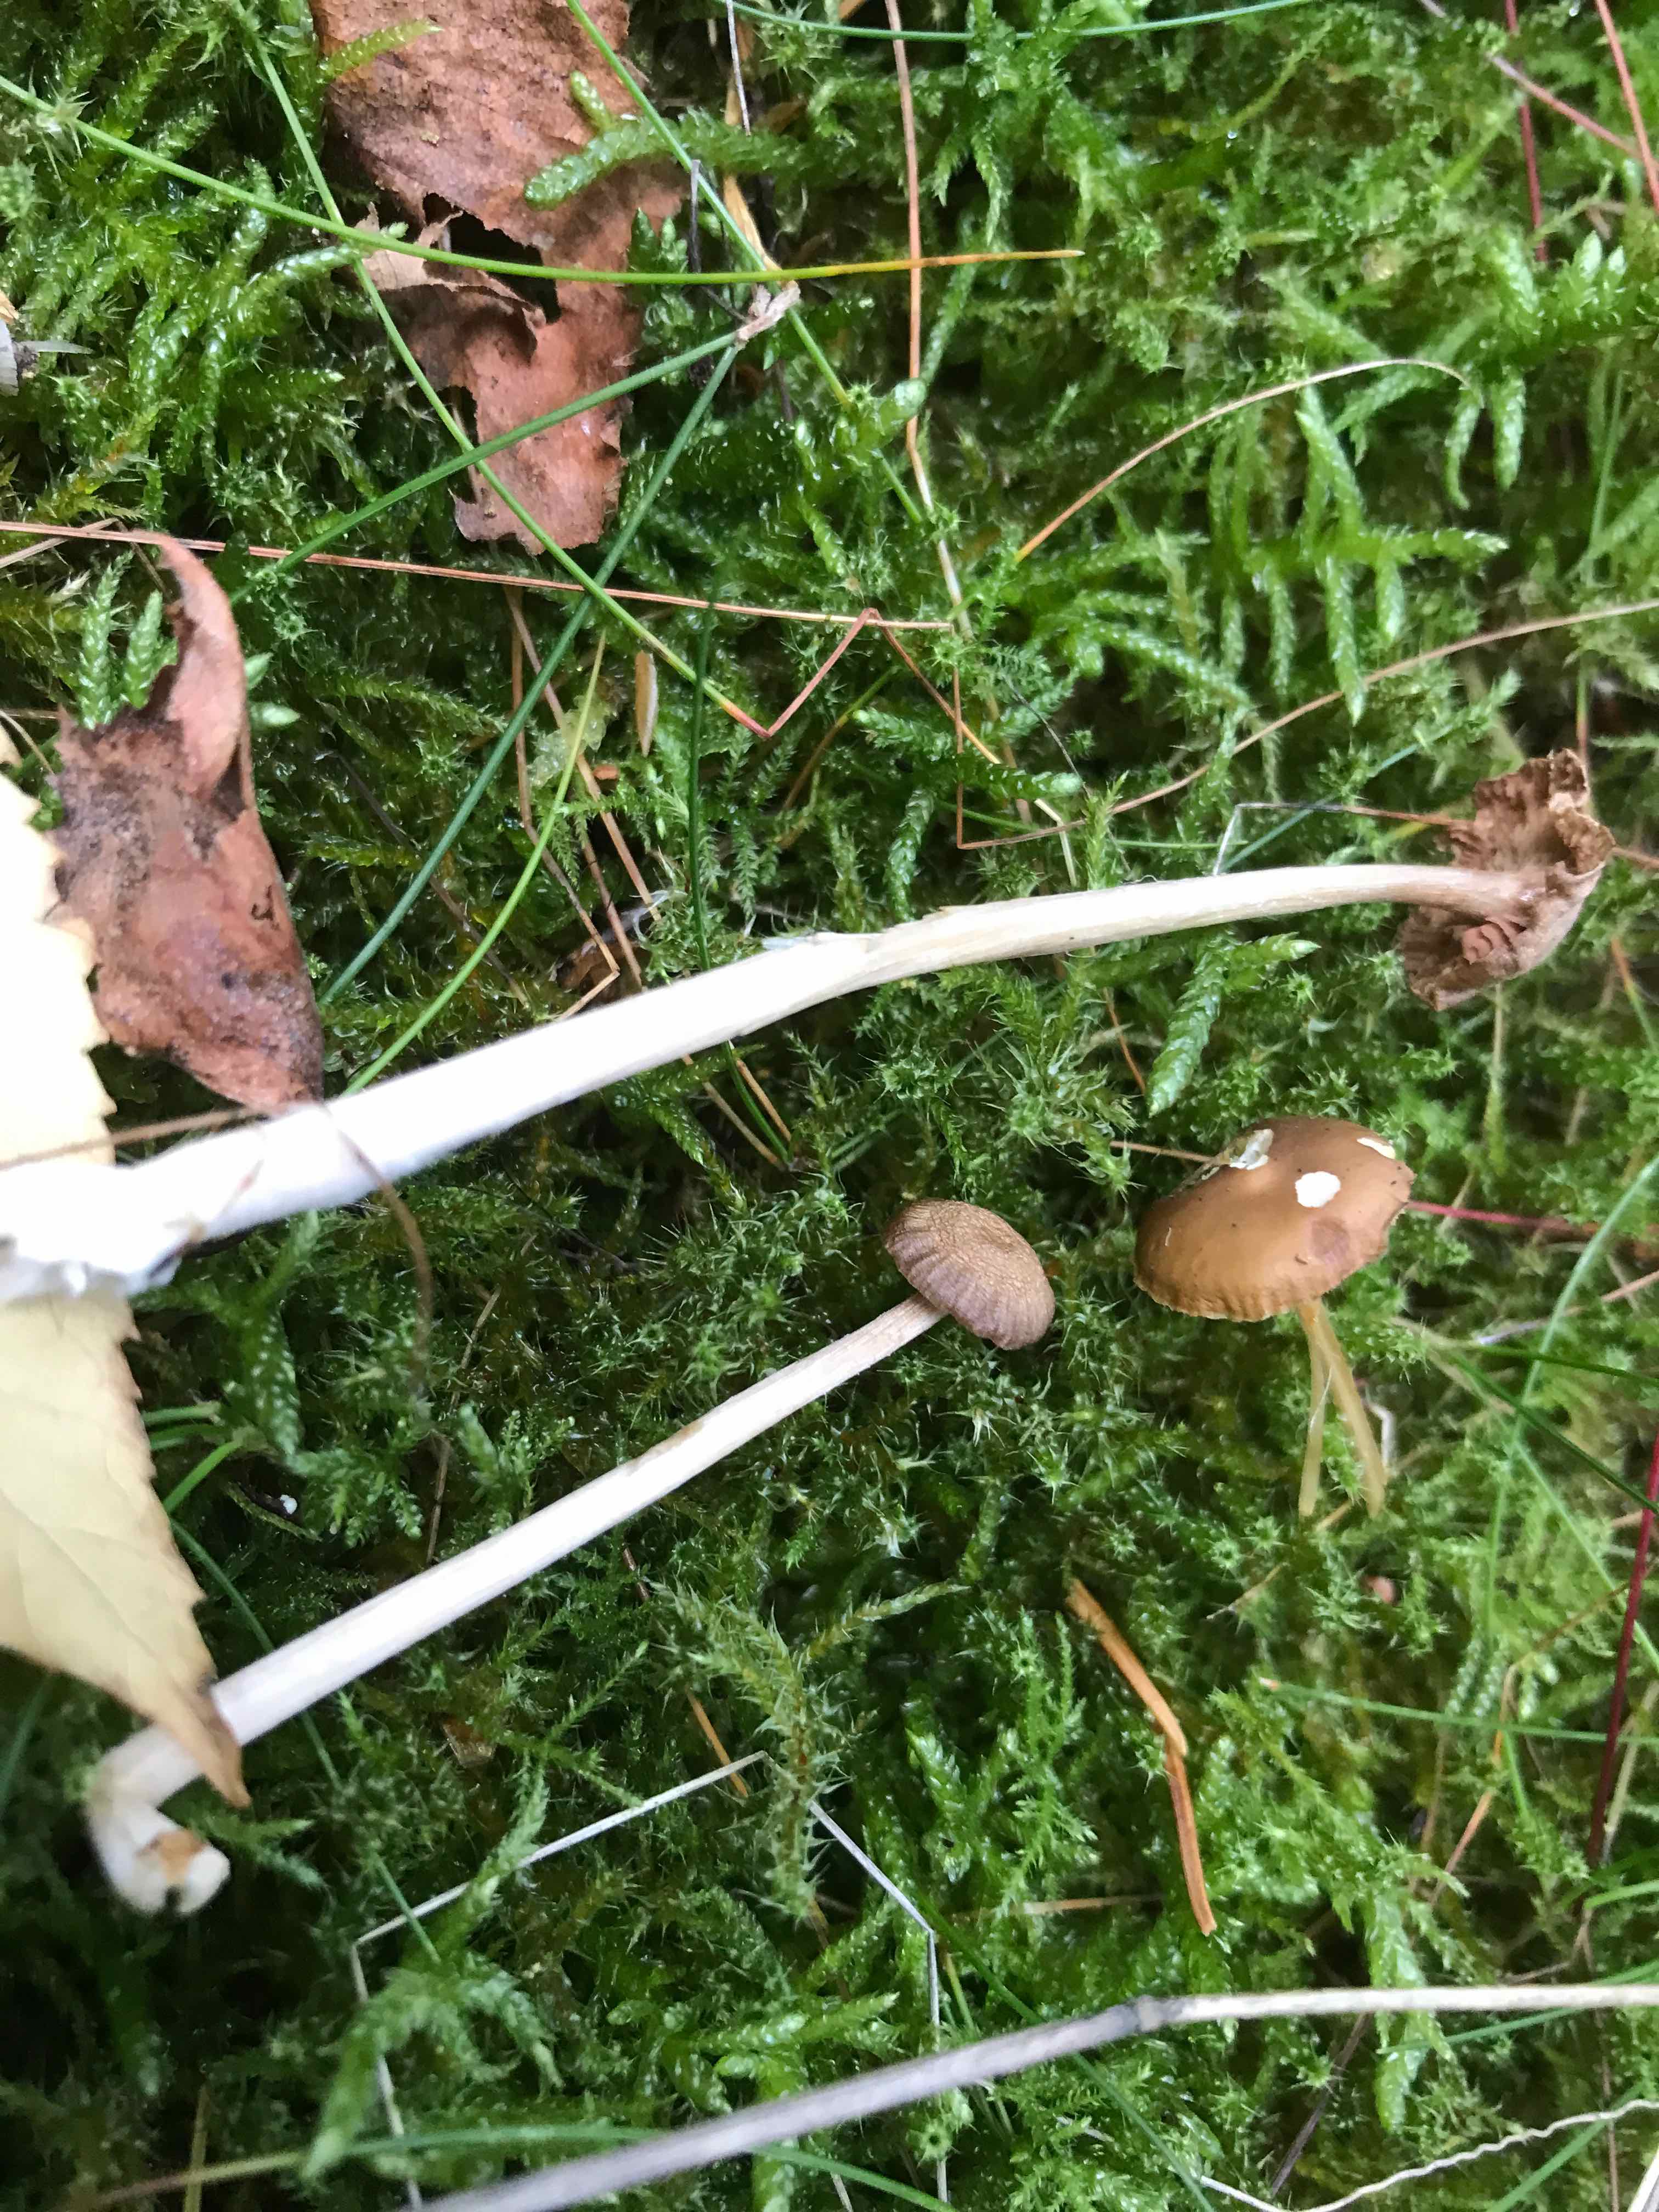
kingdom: Fungi
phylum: Basidiomycota
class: Agaricomycetes
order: Agaricales
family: Physalacriaceae
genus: Strobilurus
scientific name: Strobilurus esculentus
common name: gran-koglehat
